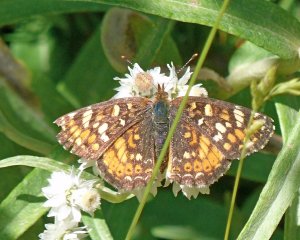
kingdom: Animalia
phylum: Arthropoda
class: Insecta
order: Lepidoptera
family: Nymphalidae
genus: Phyciodes
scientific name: Phyciodes tharos
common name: Field Crescent
